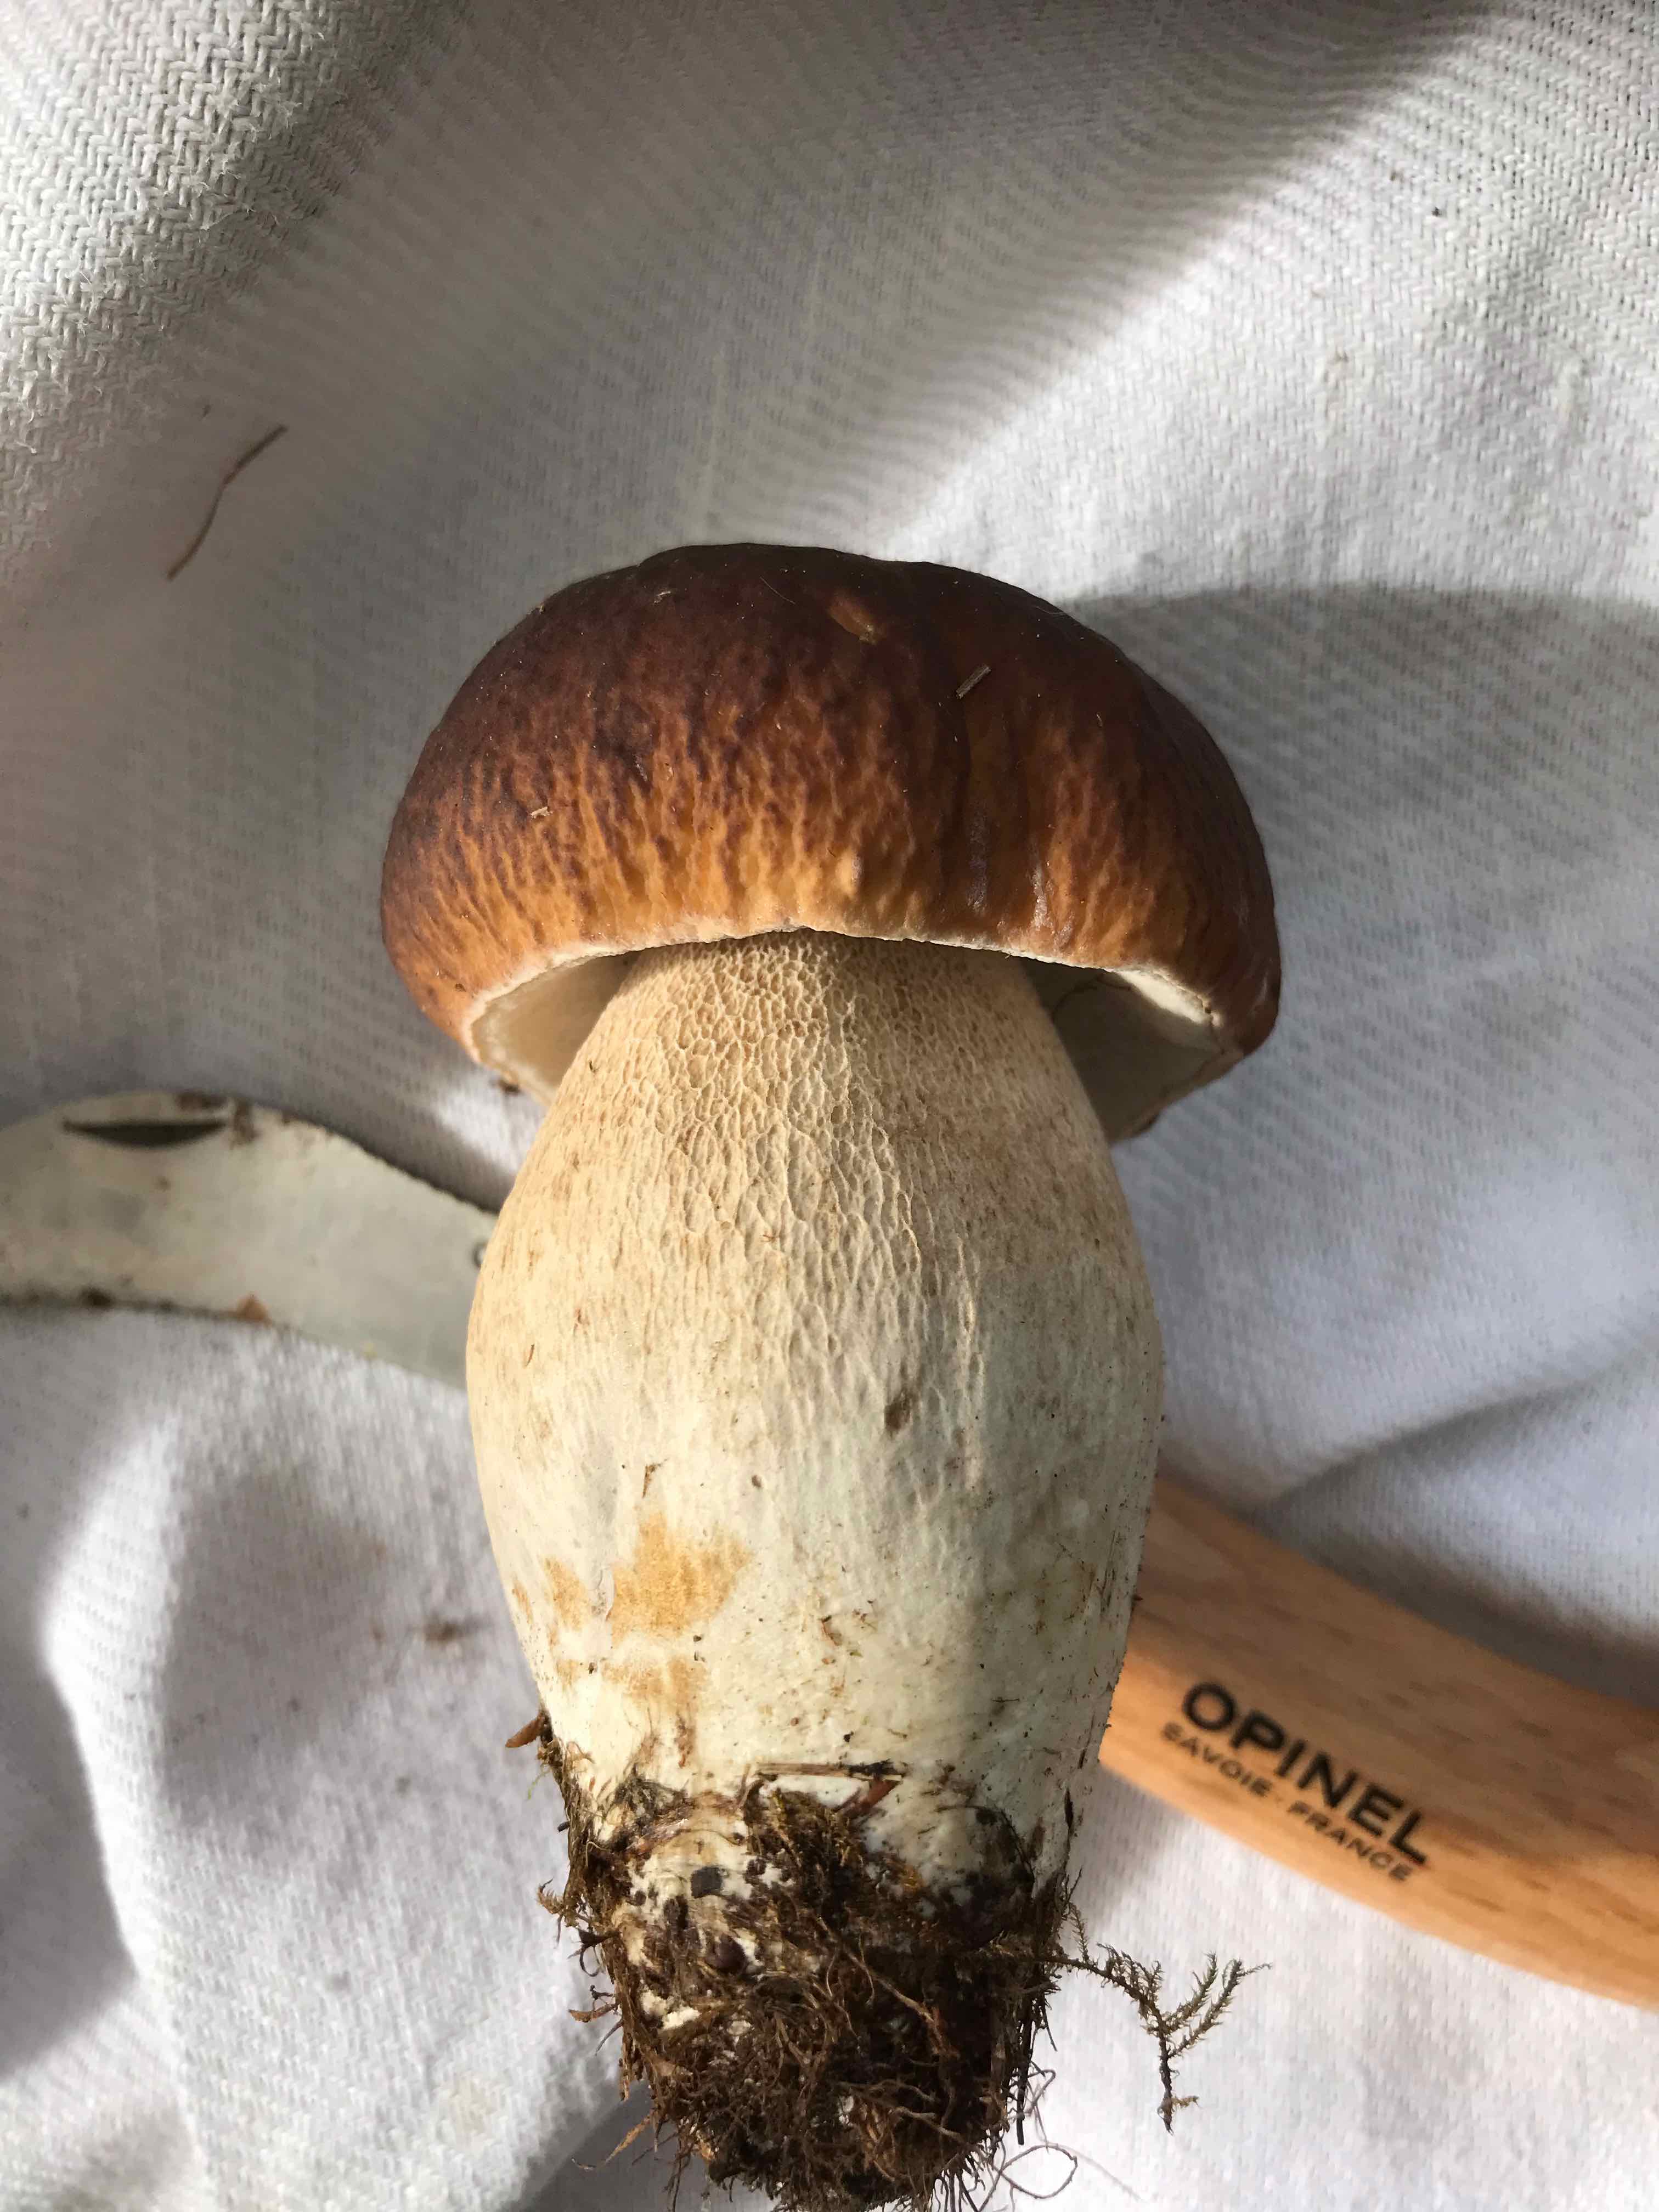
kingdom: Fungi
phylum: Basidiomycota
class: Agaricomycetes
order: Boletales
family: Boletaceae
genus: Boletus
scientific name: Boletus edulis
